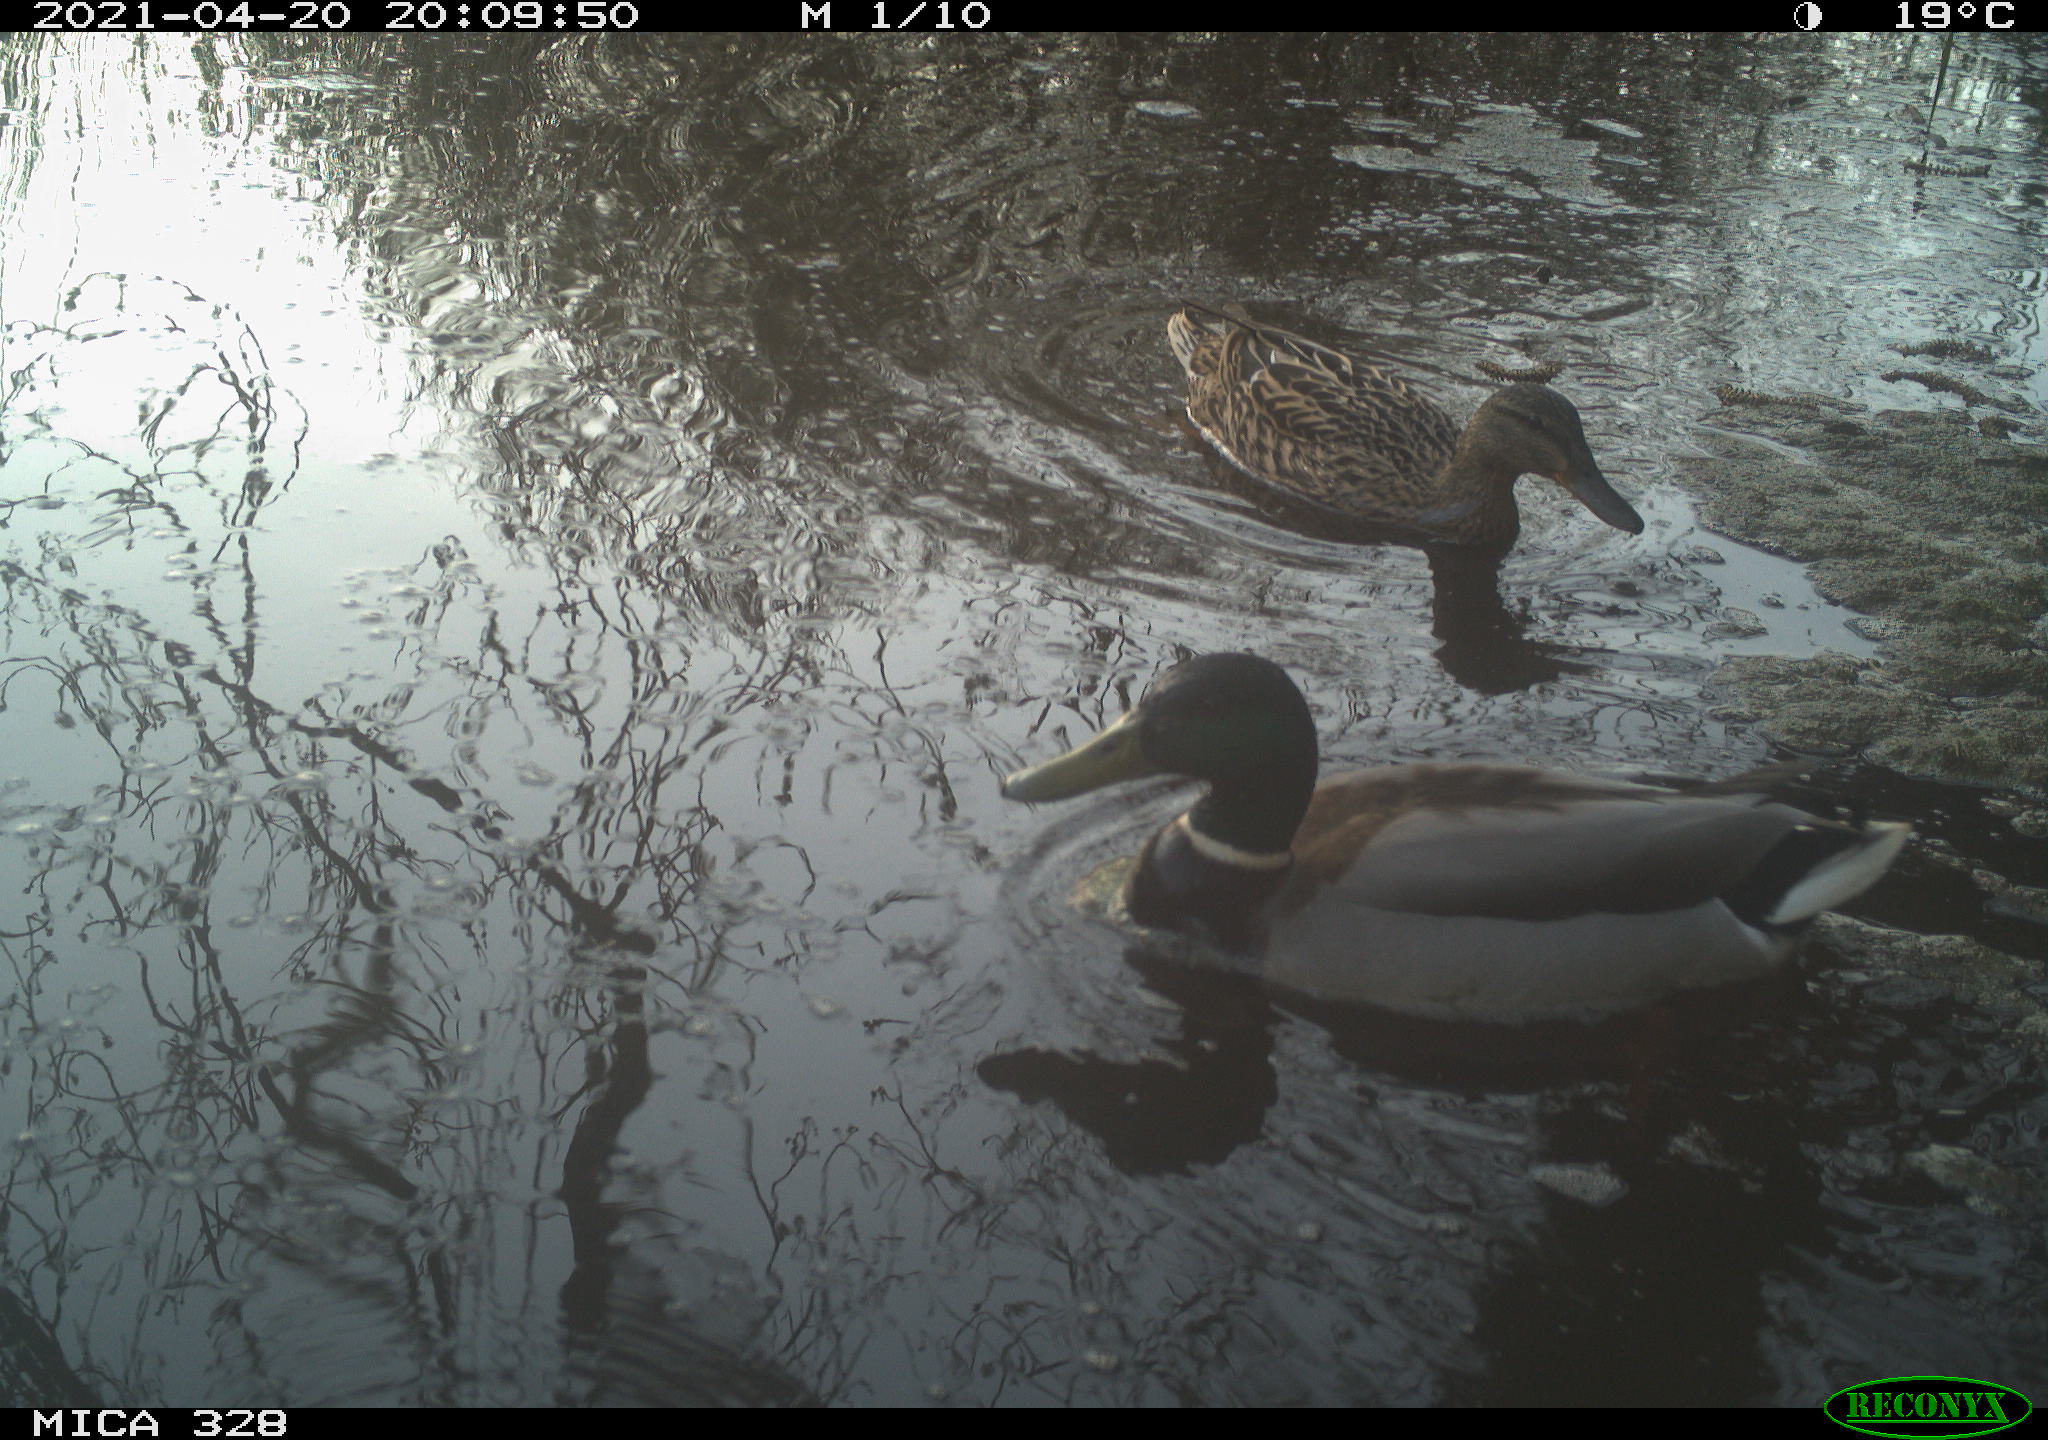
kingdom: Animalia
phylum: Chordata
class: Aves
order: Anseriformes
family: Anatidae
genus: Anas
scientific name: Anas platyrhynchos
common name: Mallard
